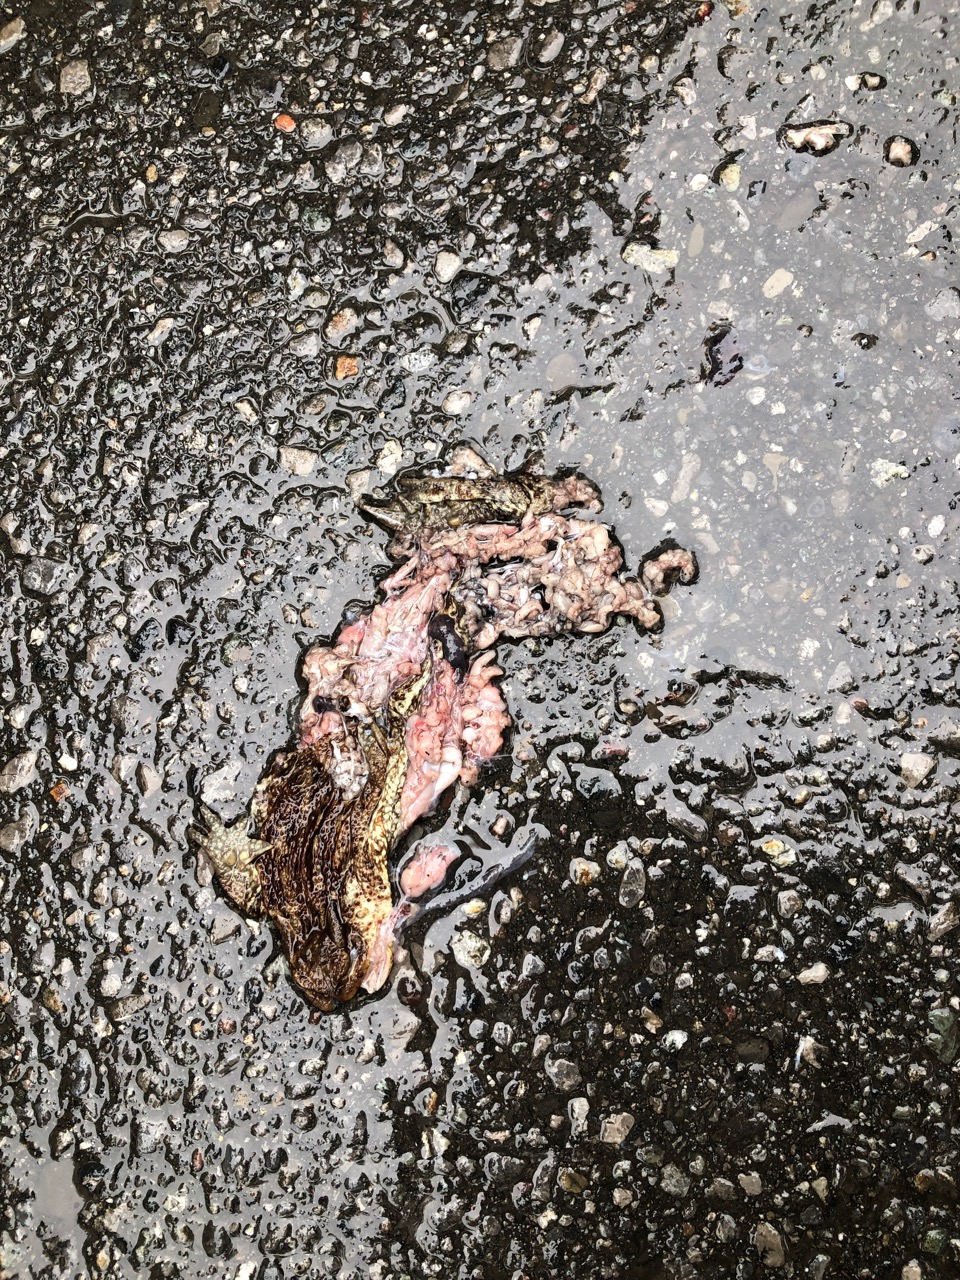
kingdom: Animalia
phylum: Chordata
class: Amphibia
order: Anura
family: Bufonidae
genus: Bufo
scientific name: Bufo bufo
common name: Common toad
